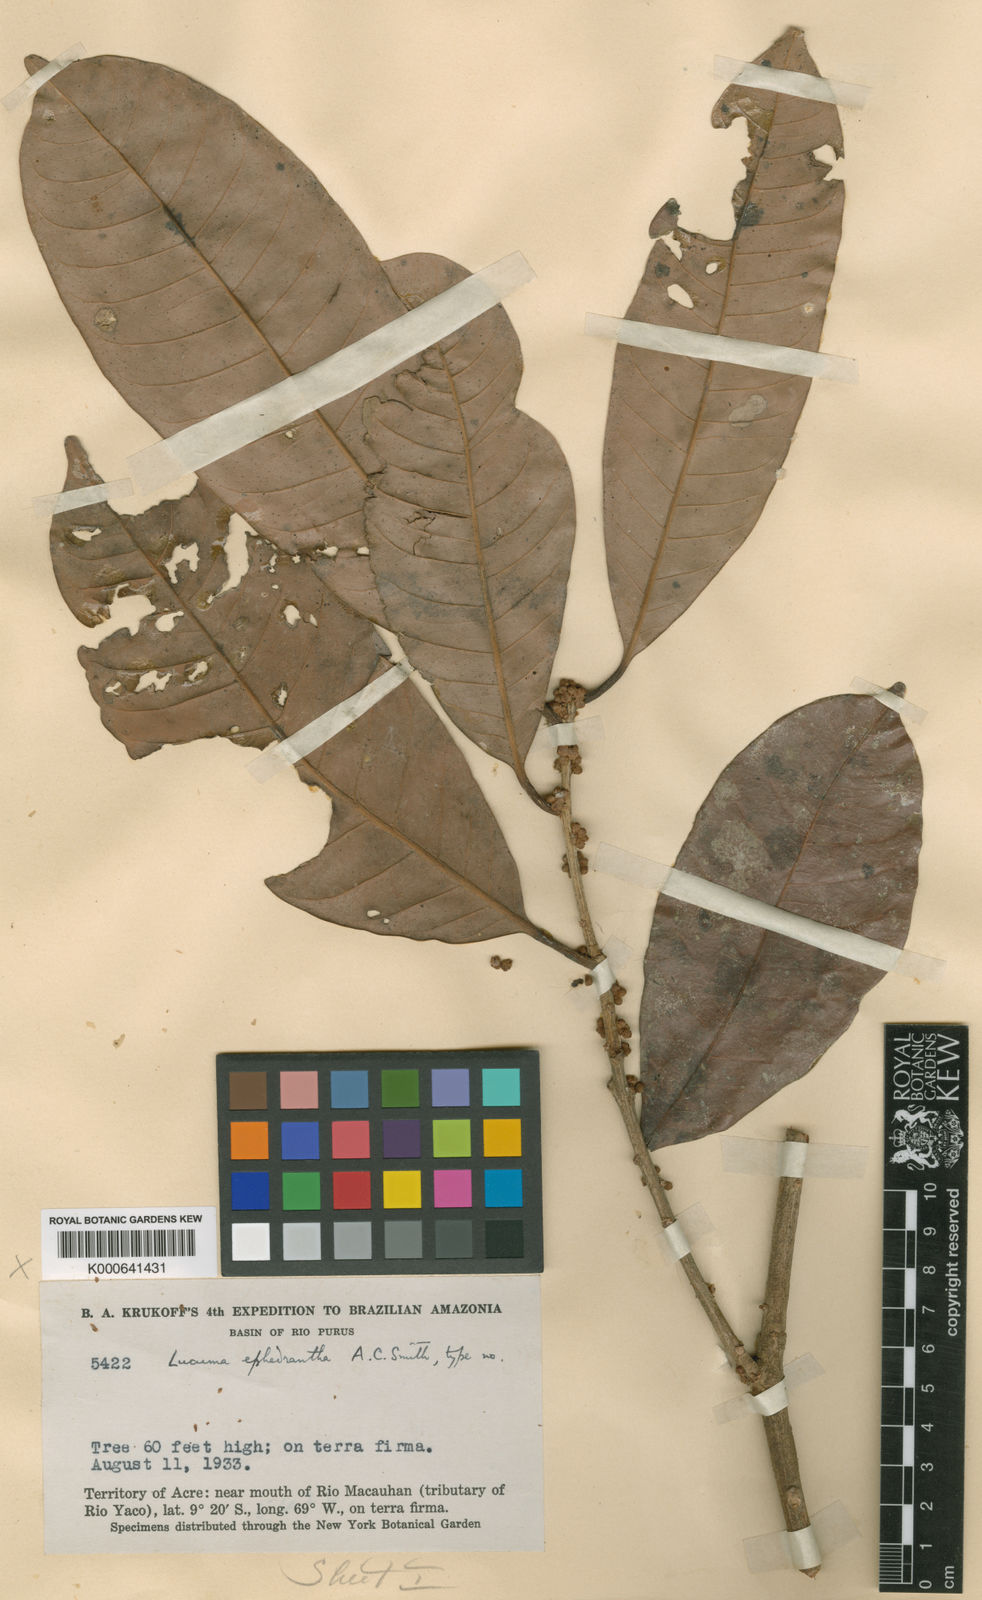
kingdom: Plantae
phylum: Tracheophyta
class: Magnoliopsida
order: Ericales
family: Sapotaceae
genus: Pouteria
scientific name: Pouteria ephedrantha
